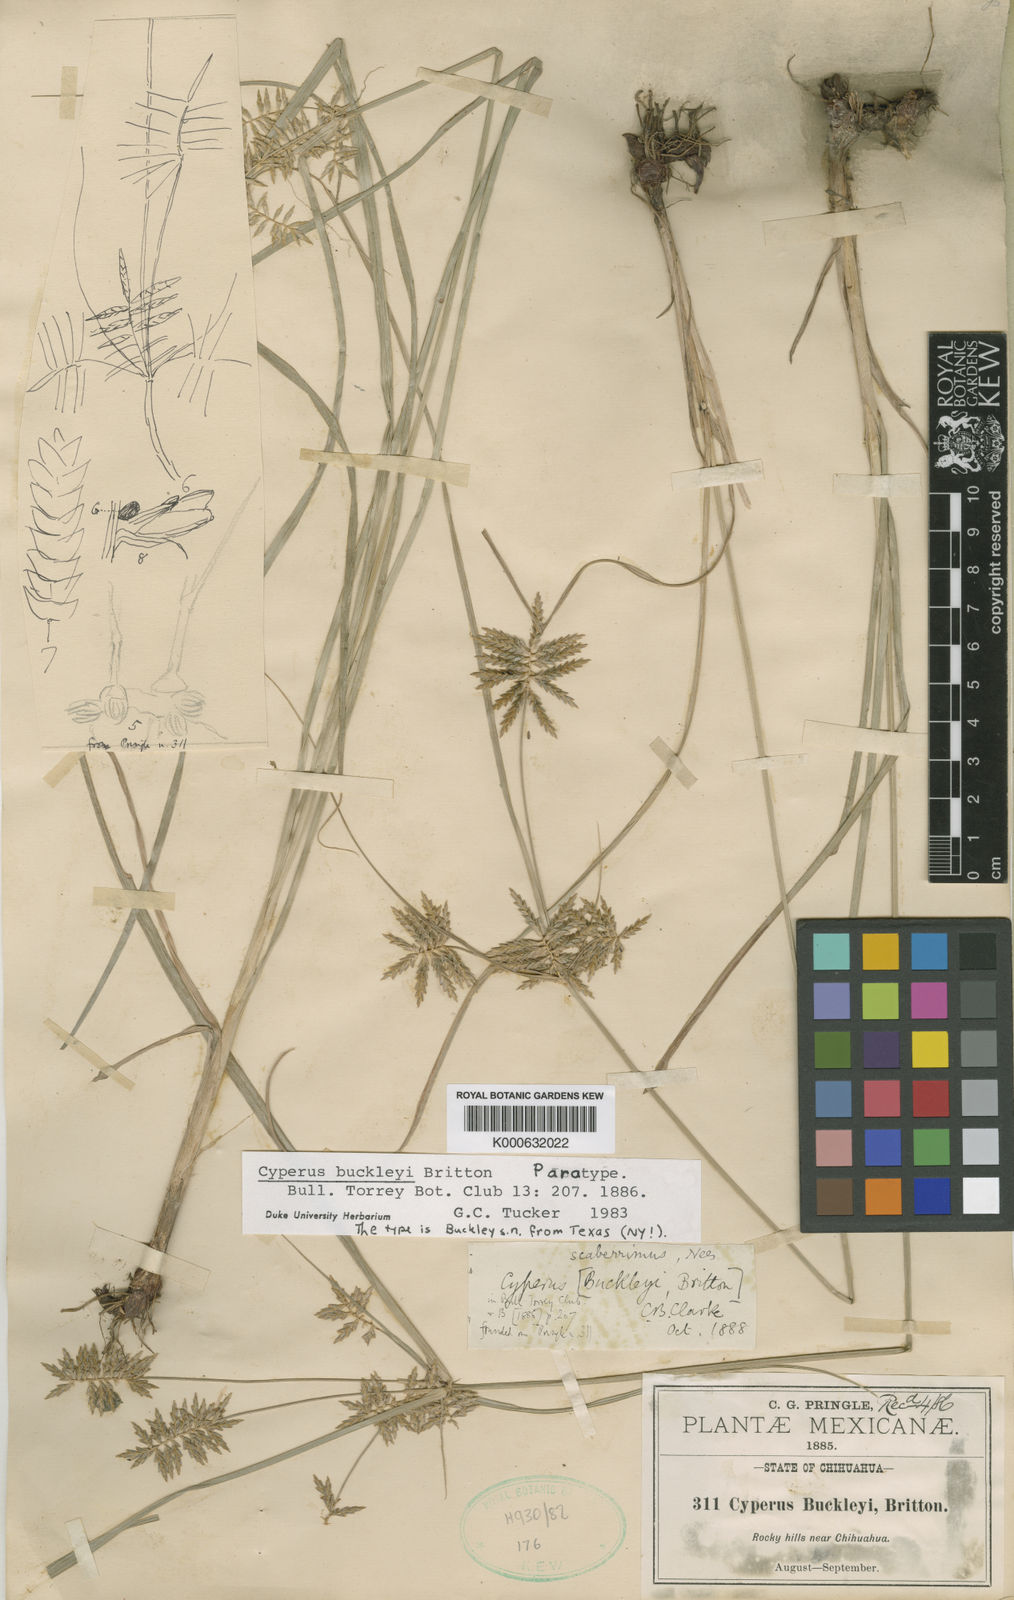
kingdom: Plantae
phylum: Tracheophyta
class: Liliopsida
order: Poales
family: Cyperaceae
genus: Cyperus
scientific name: Cyperus spectabilis
